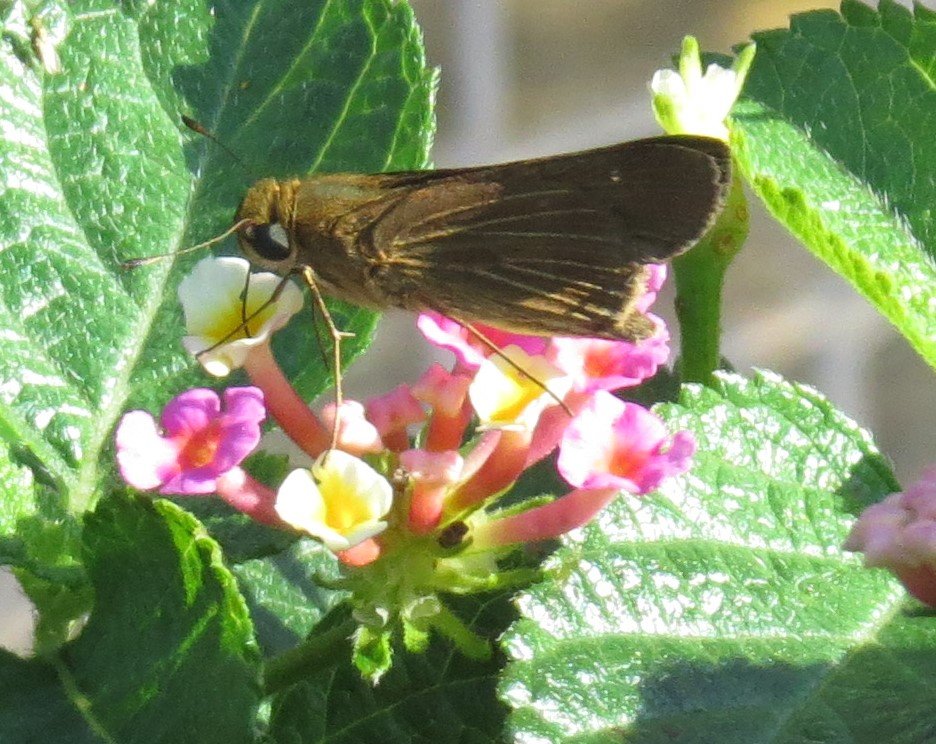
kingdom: Animalia
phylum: Arthropoda
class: Insecta
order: Lepidoptera
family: Hesperiidae
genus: Panoquina
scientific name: Panoquina ocola
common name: Ocola Skipper
